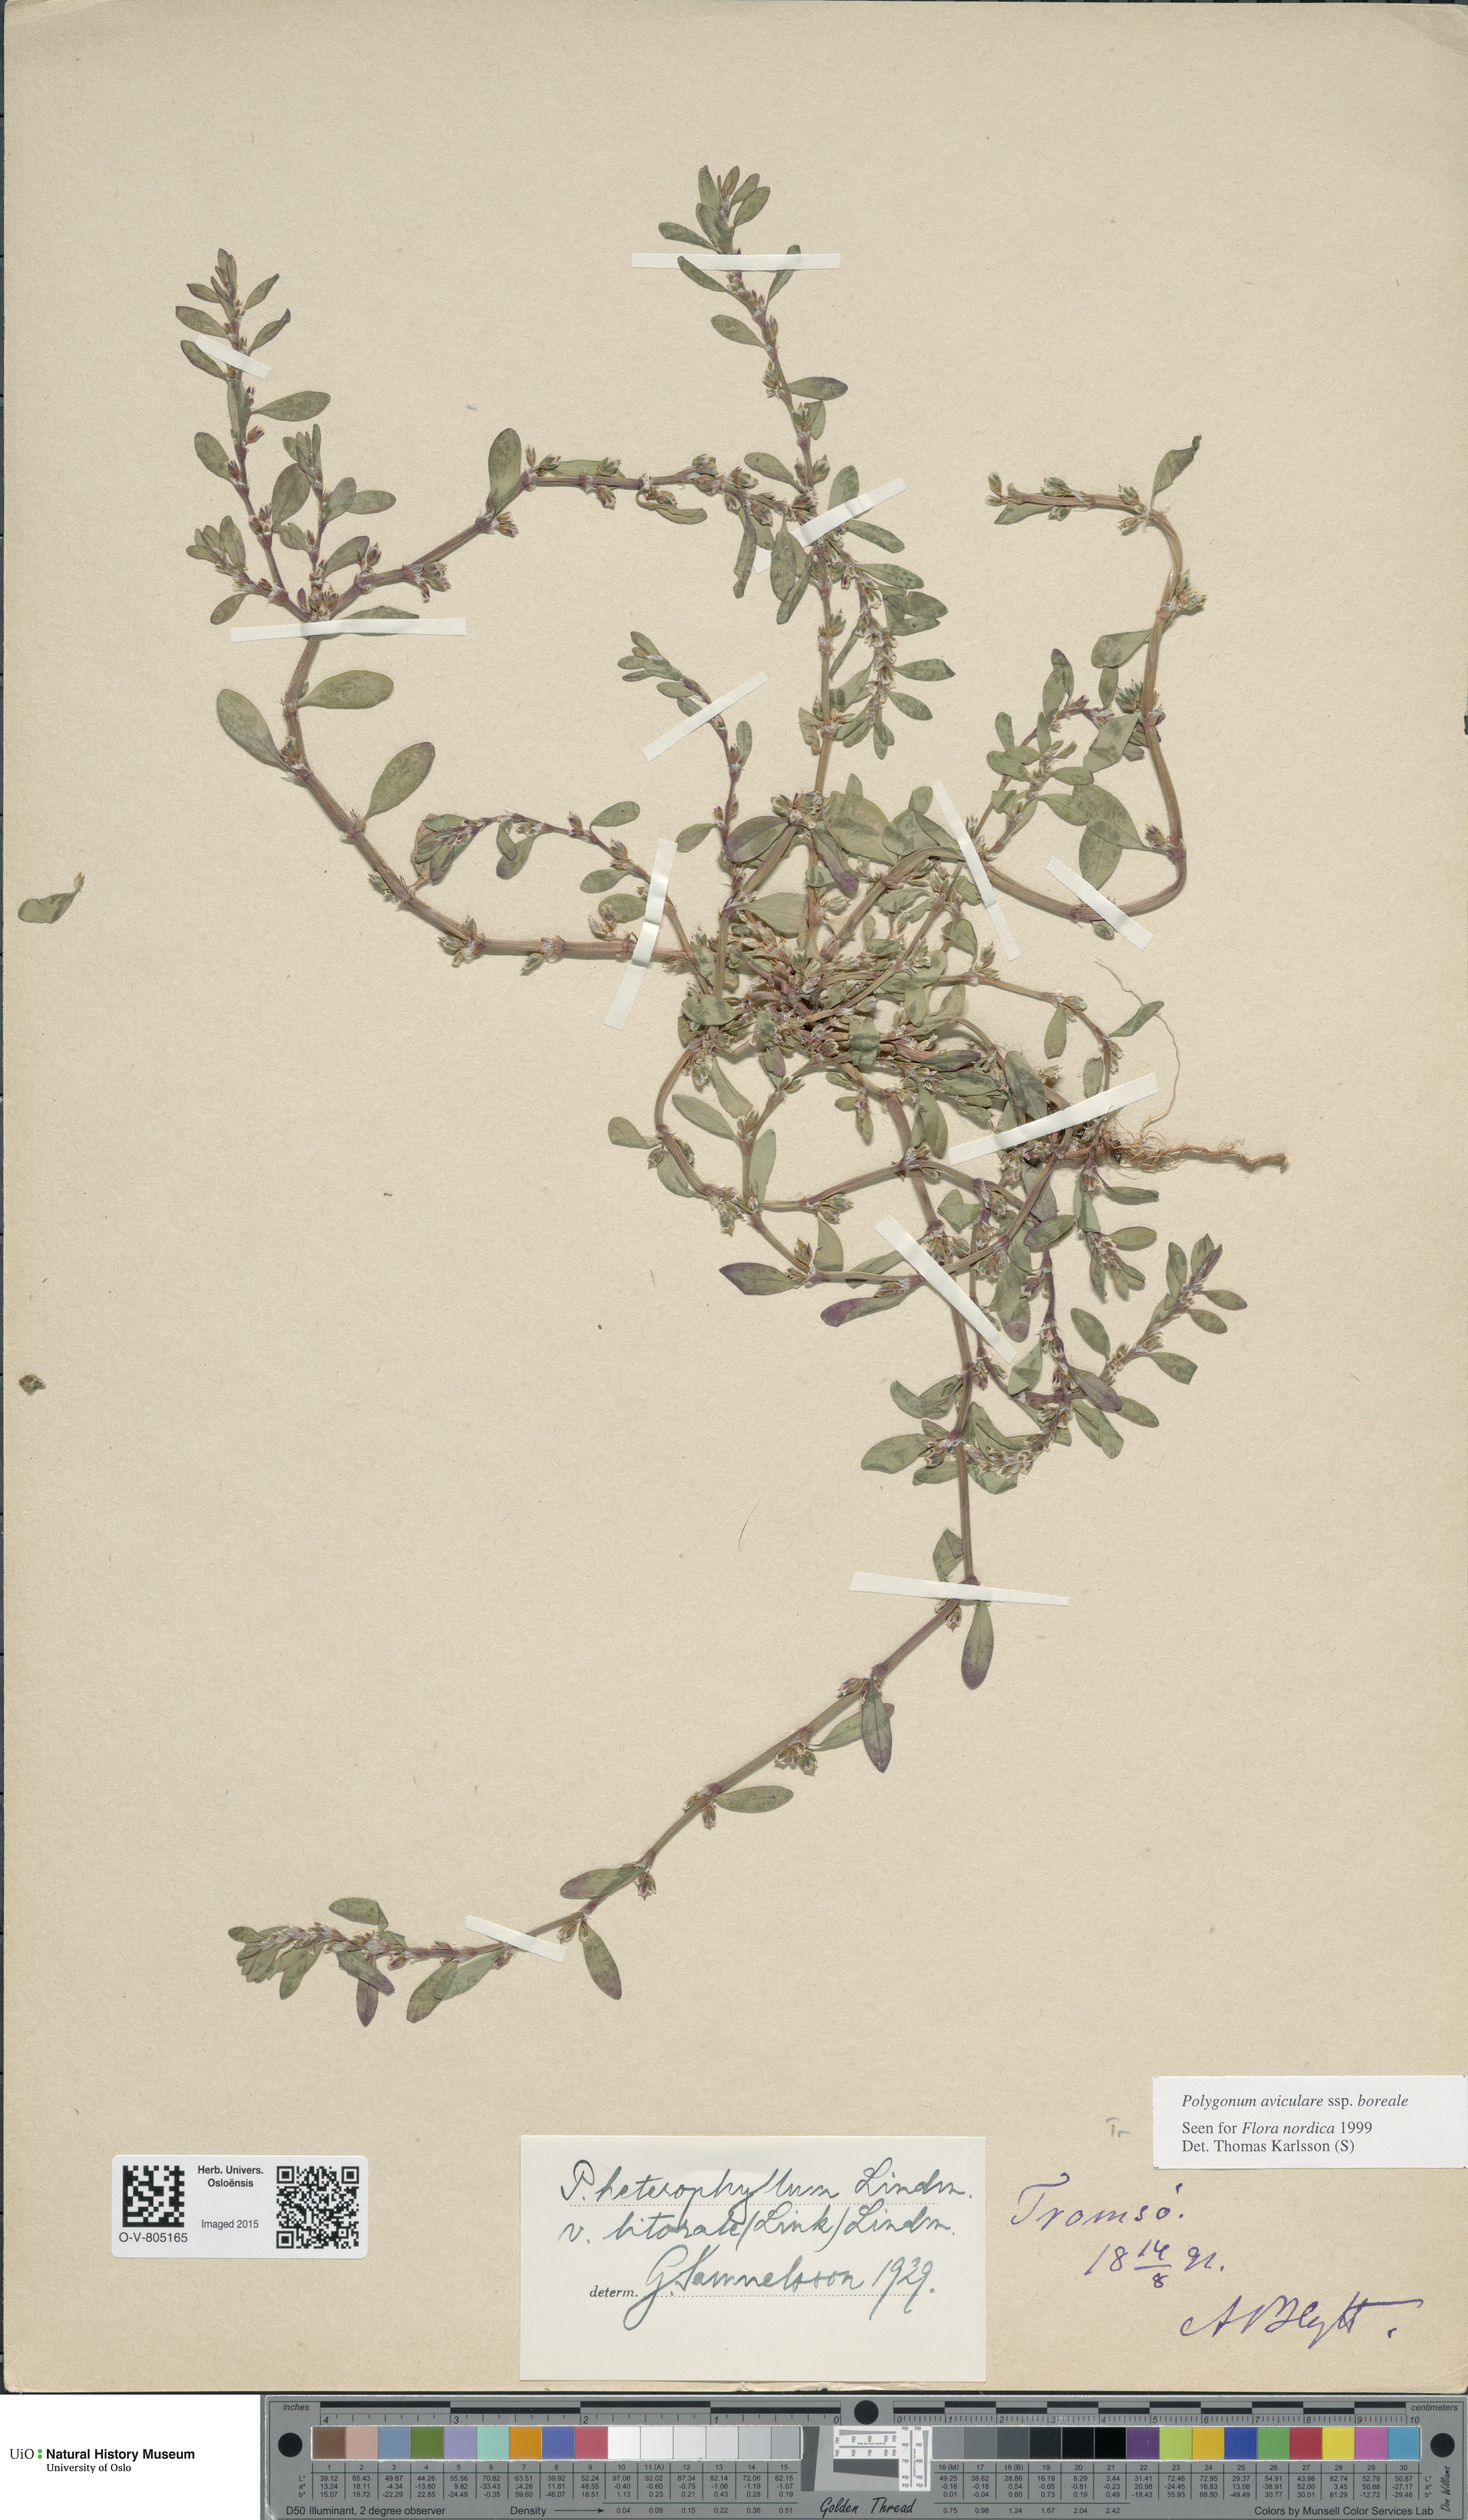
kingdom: Plantae
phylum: Tracheophyta
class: Magnoliopsida
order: Caryophyllales
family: Polygonaceae
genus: Polygonum
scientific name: Polygonum boreale
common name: Northern knotgrass
